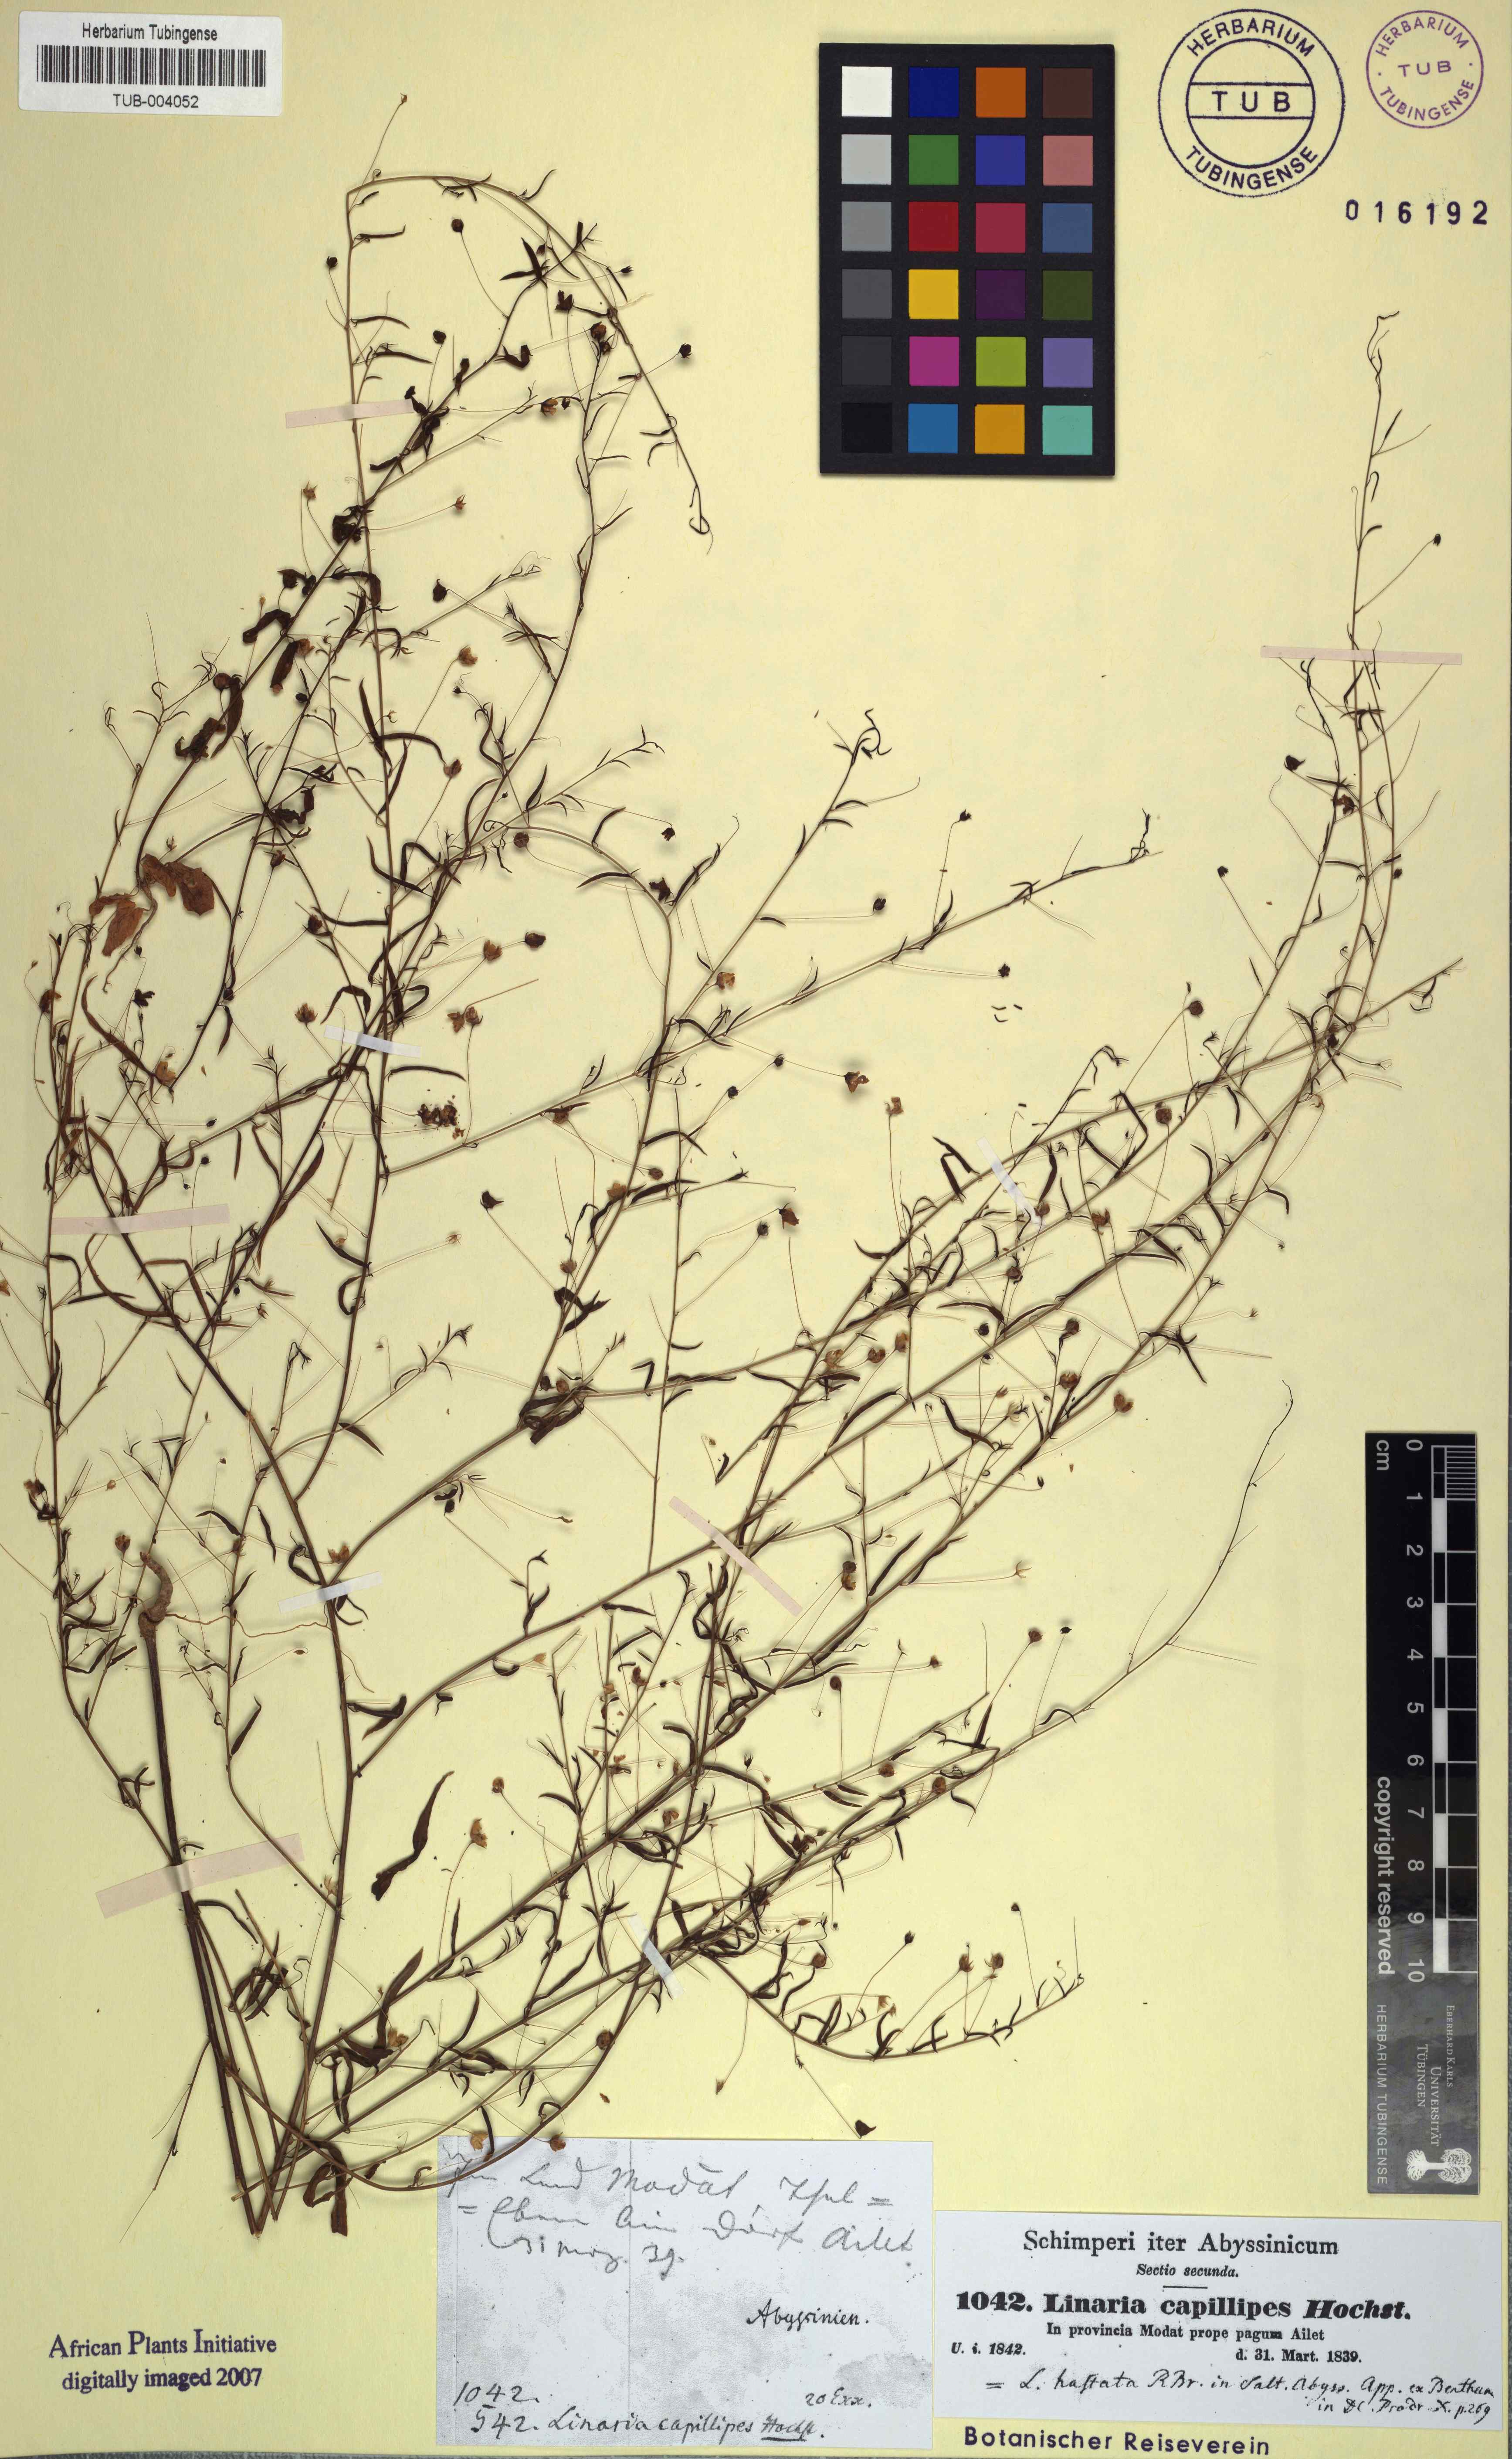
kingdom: Plantae
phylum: Tracheophyta
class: Magnoliopsida
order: Lamiales
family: Plantaginaceae
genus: Nanorrhinum
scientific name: Nanorrhinum hastatum
